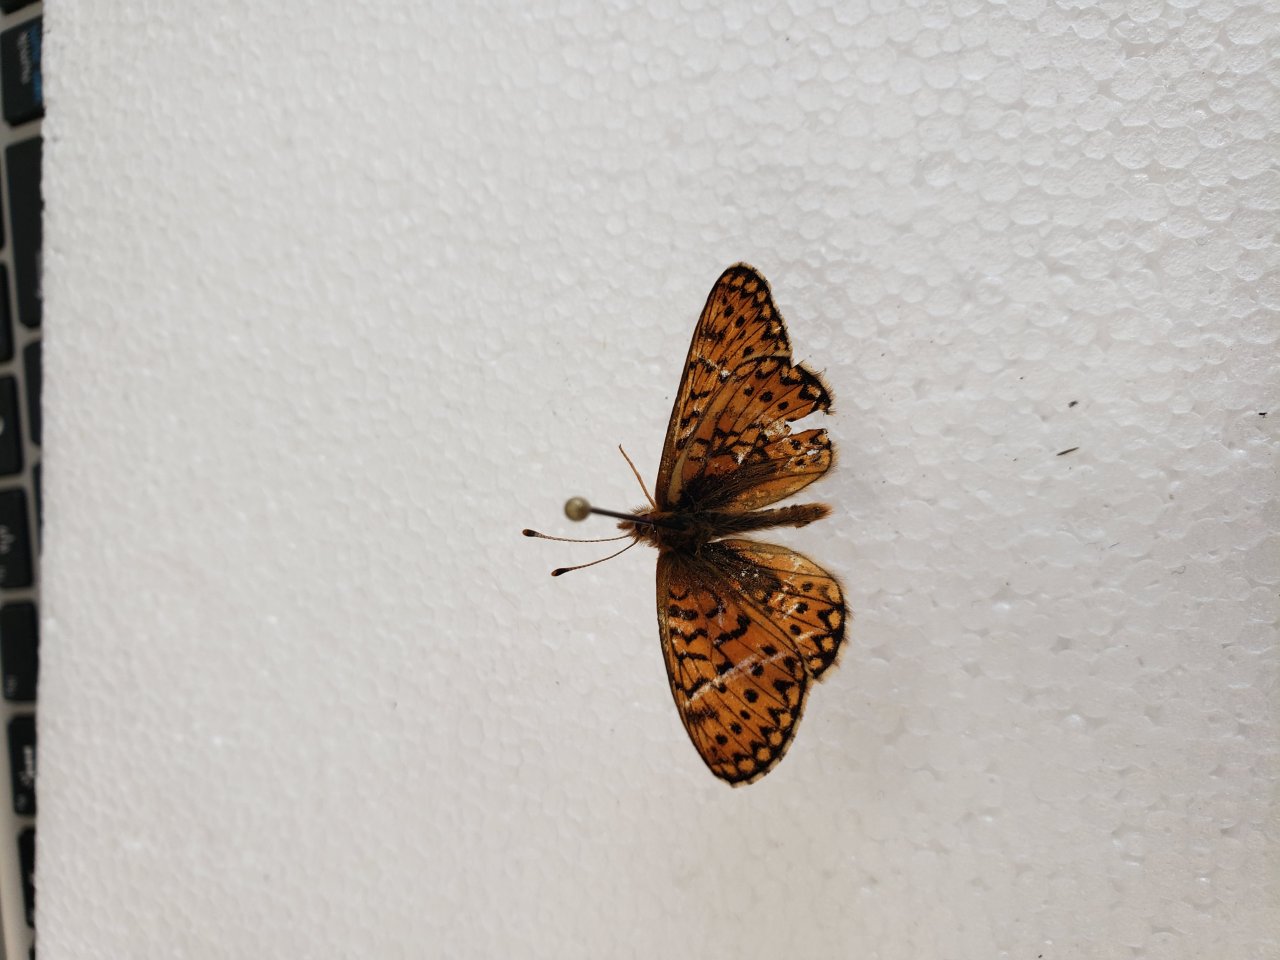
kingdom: Animalia
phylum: Arthropoda
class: Insecta
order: Lepidoptera
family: Nymphalidae
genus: Boloria
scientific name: Boloria eunomia
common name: Bog Fritillary
